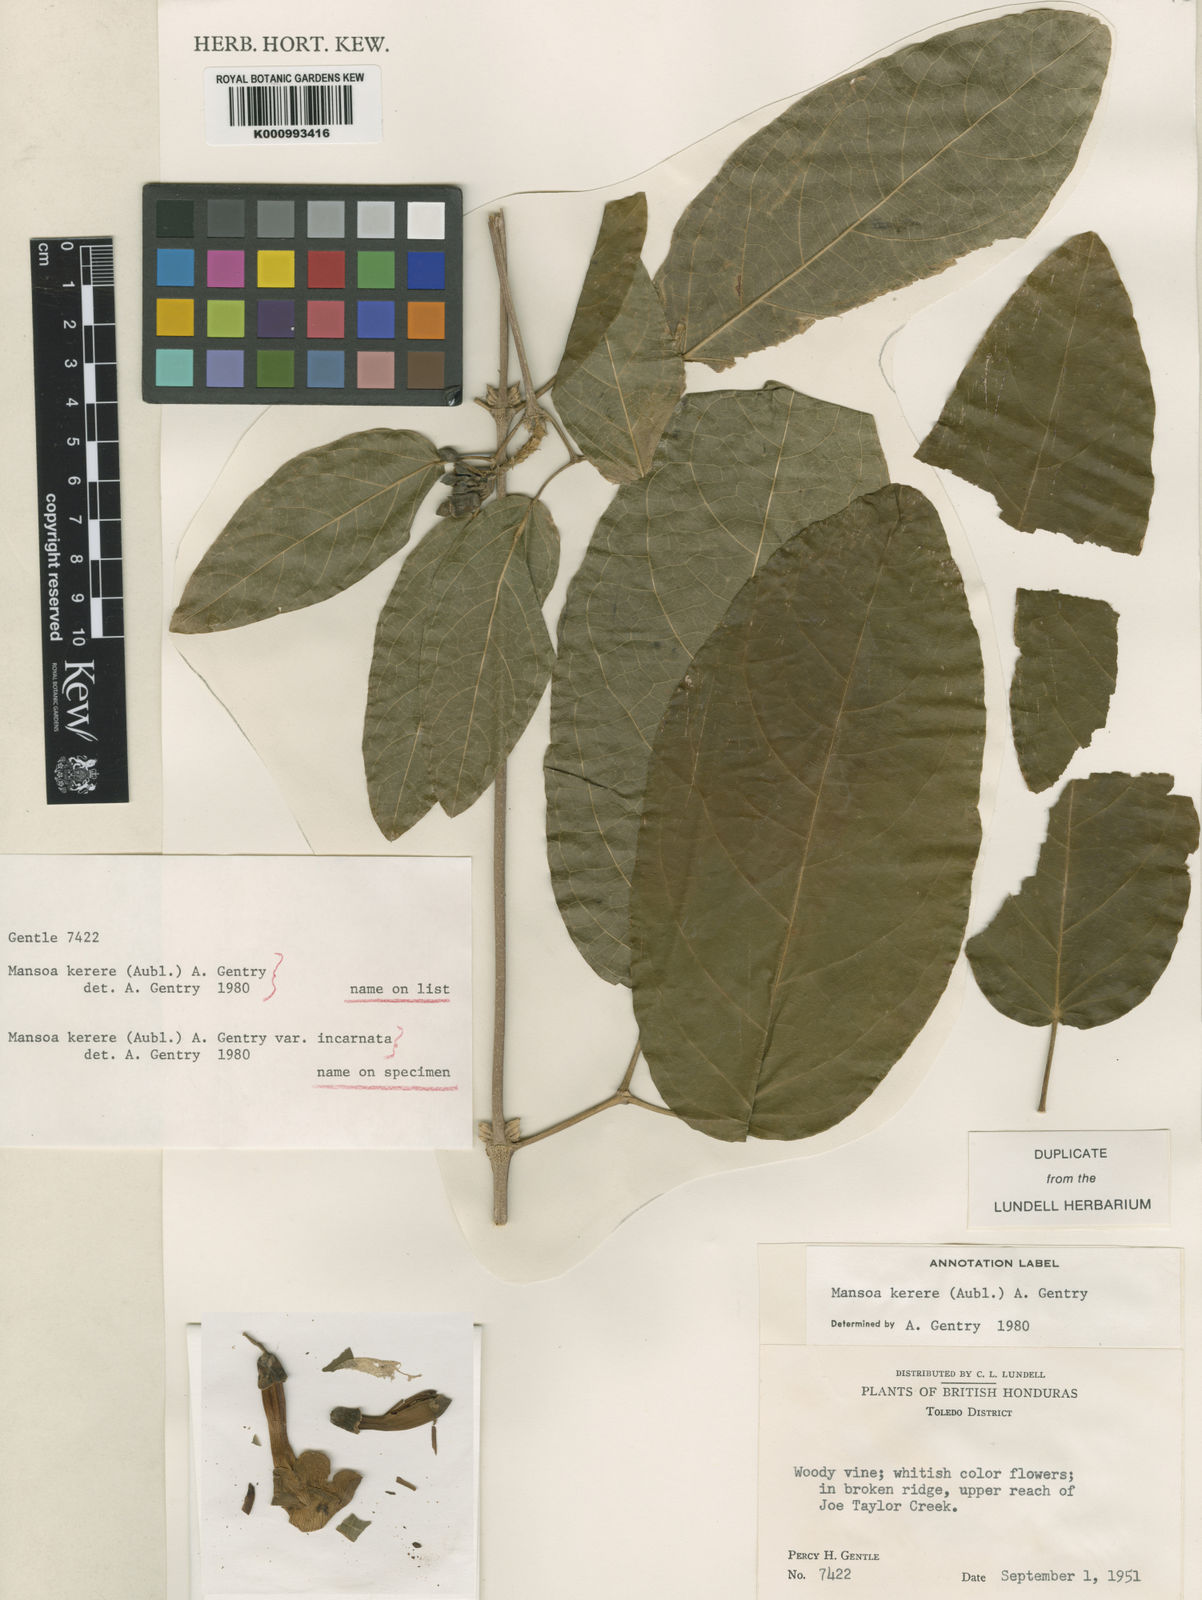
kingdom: Plantae
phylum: Tracheophyta
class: Magnoliopsida
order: Lamiales
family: Bignoniaceae
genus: Pachyptera
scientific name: Pachyptera kerere
